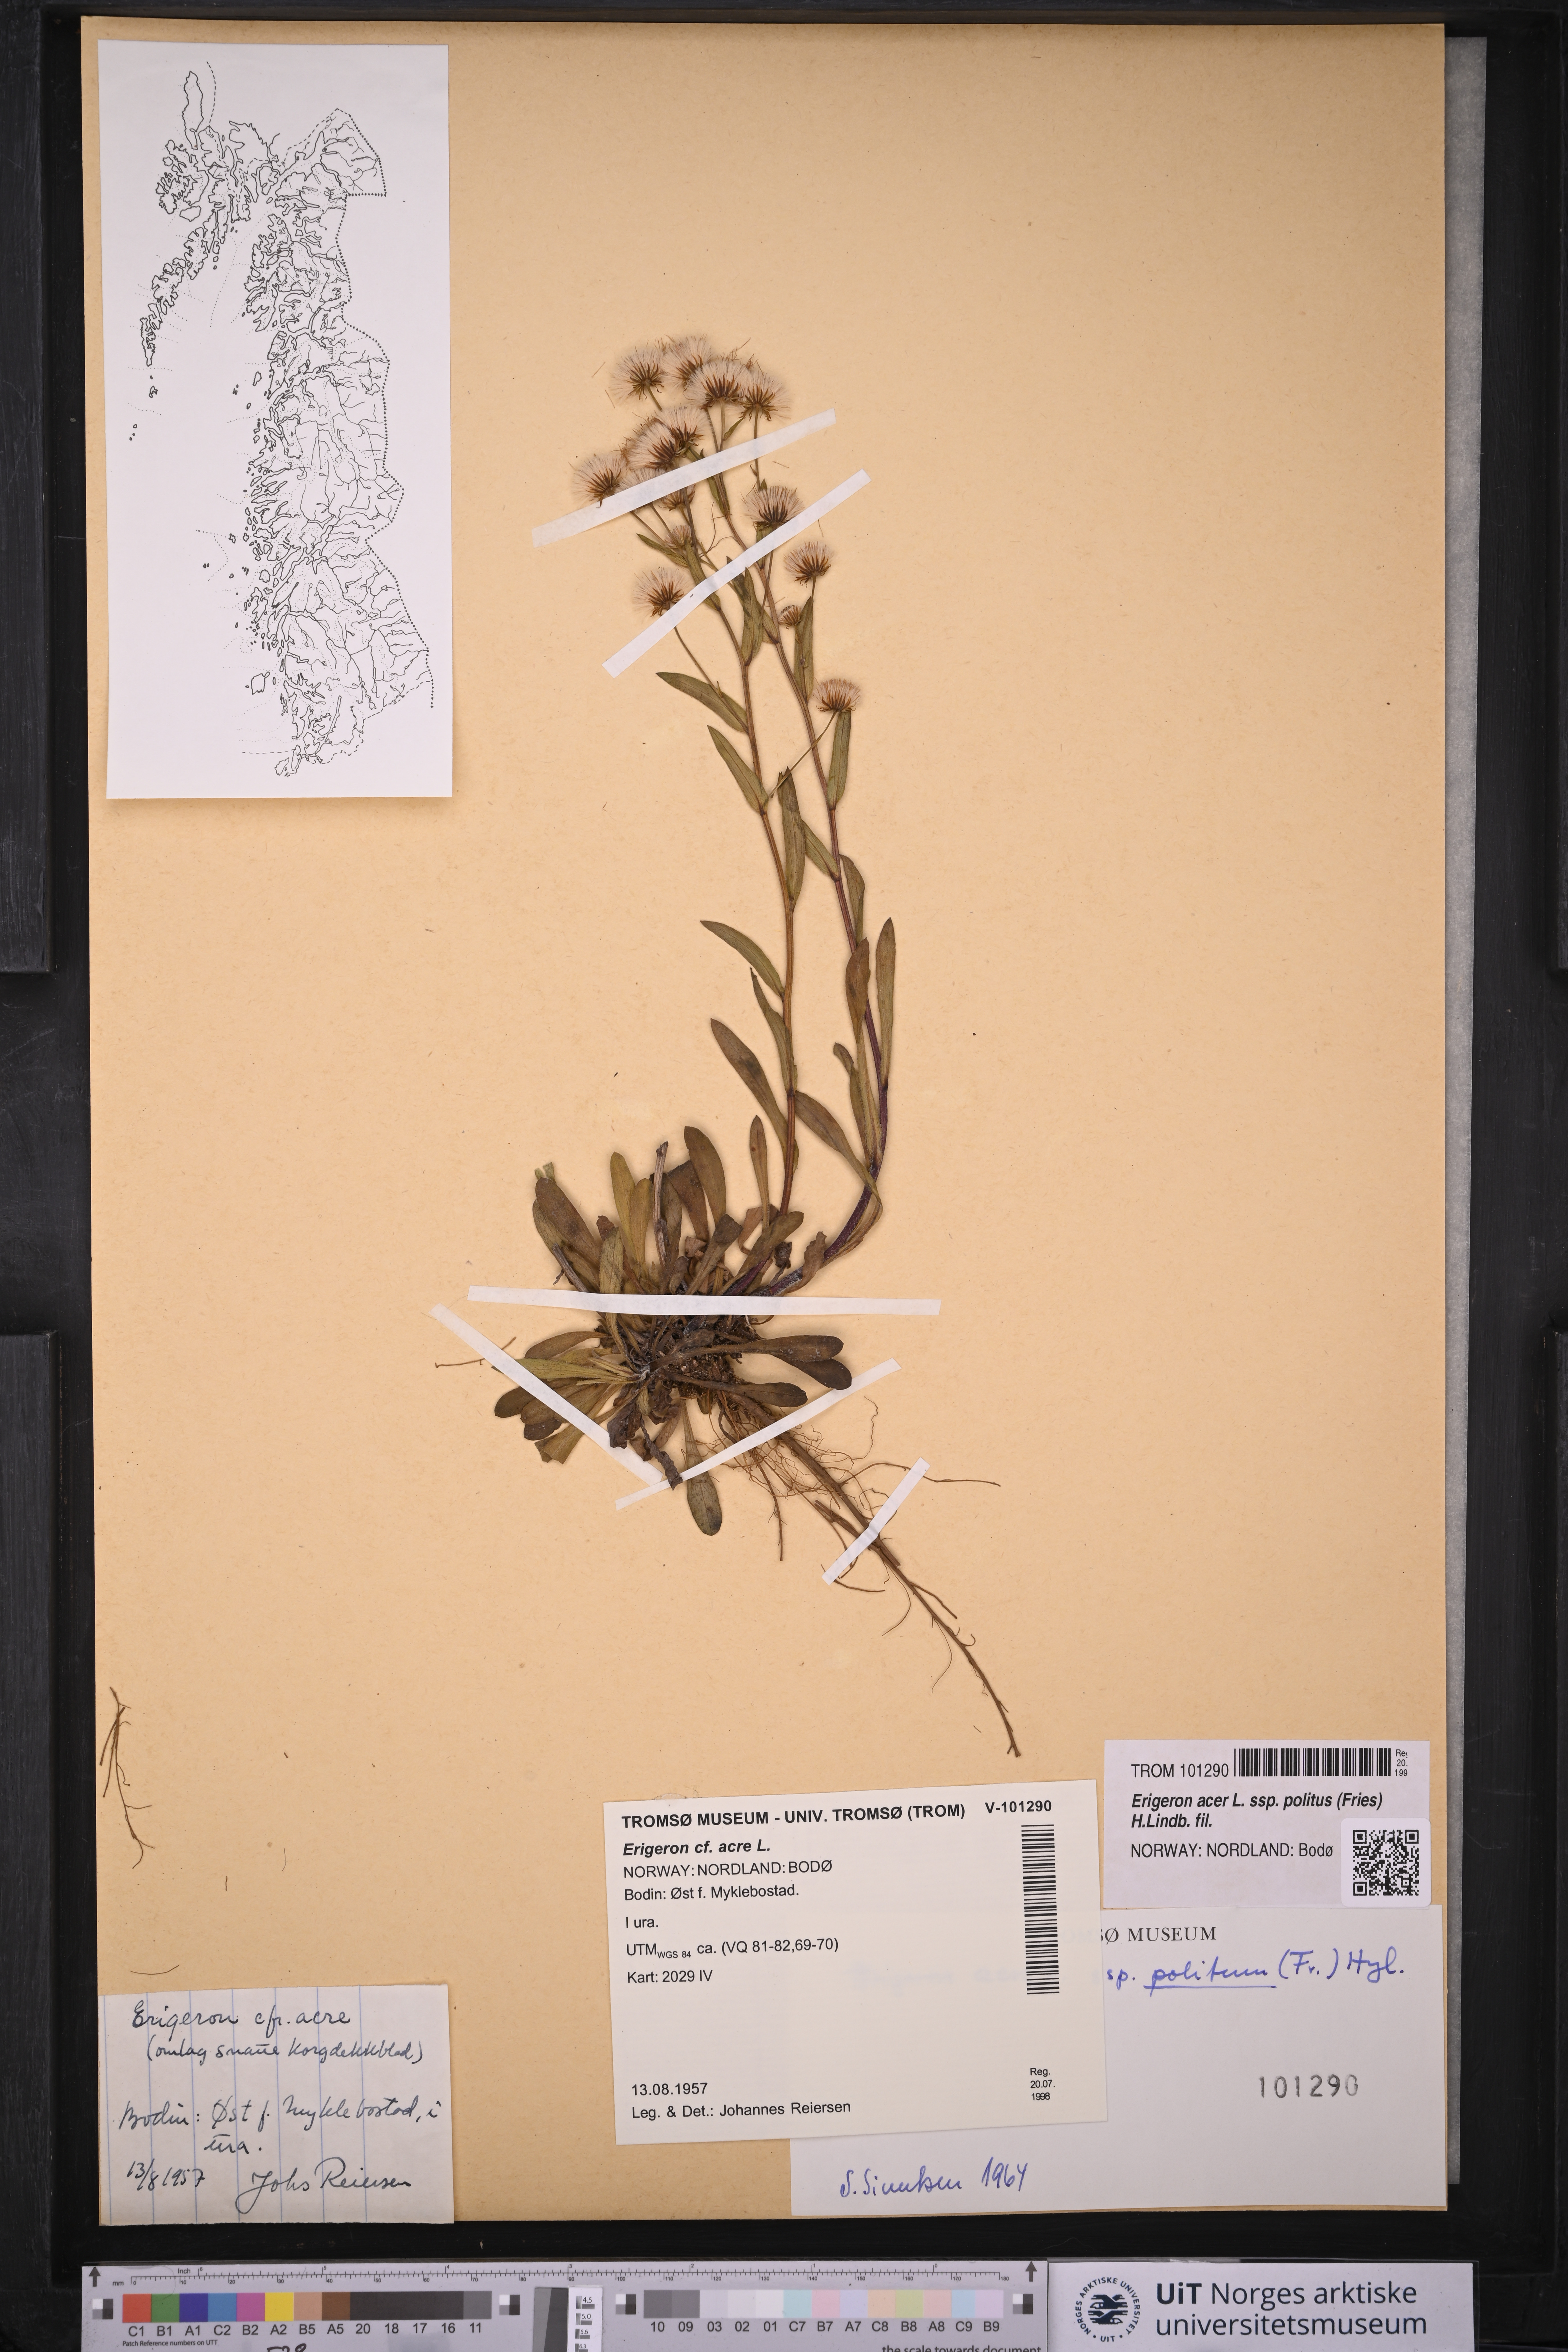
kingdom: Plantae
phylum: Tracheophyta
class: Magnoliopsida
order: Asterales
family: Asteraceae
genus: Erigeron
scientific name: Erigeron politus
